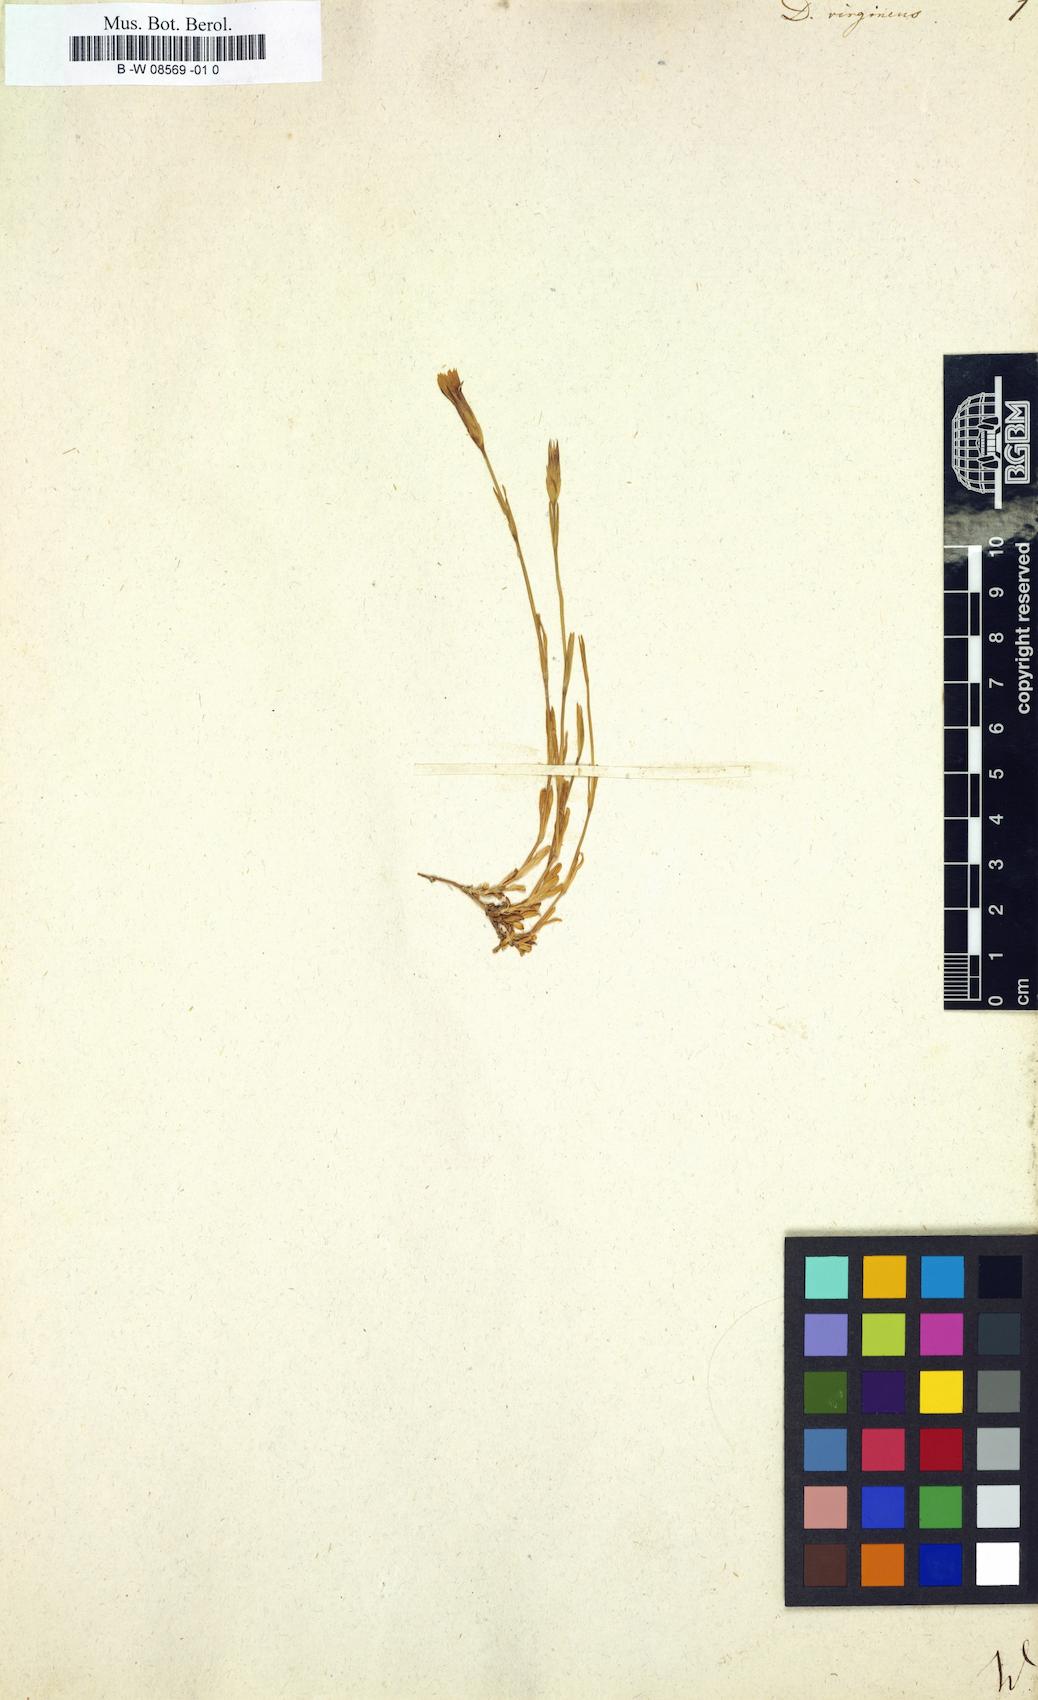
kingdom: Plantae
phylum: Tracheophyta
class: Magnoliopsida
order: Caryophyllales
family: Caryophyllaceae
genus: Dianthus
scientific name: Dianthus virgineus
